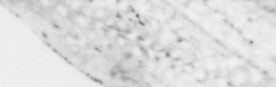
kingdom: Animalia
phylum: Chordata
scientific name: Chordata
